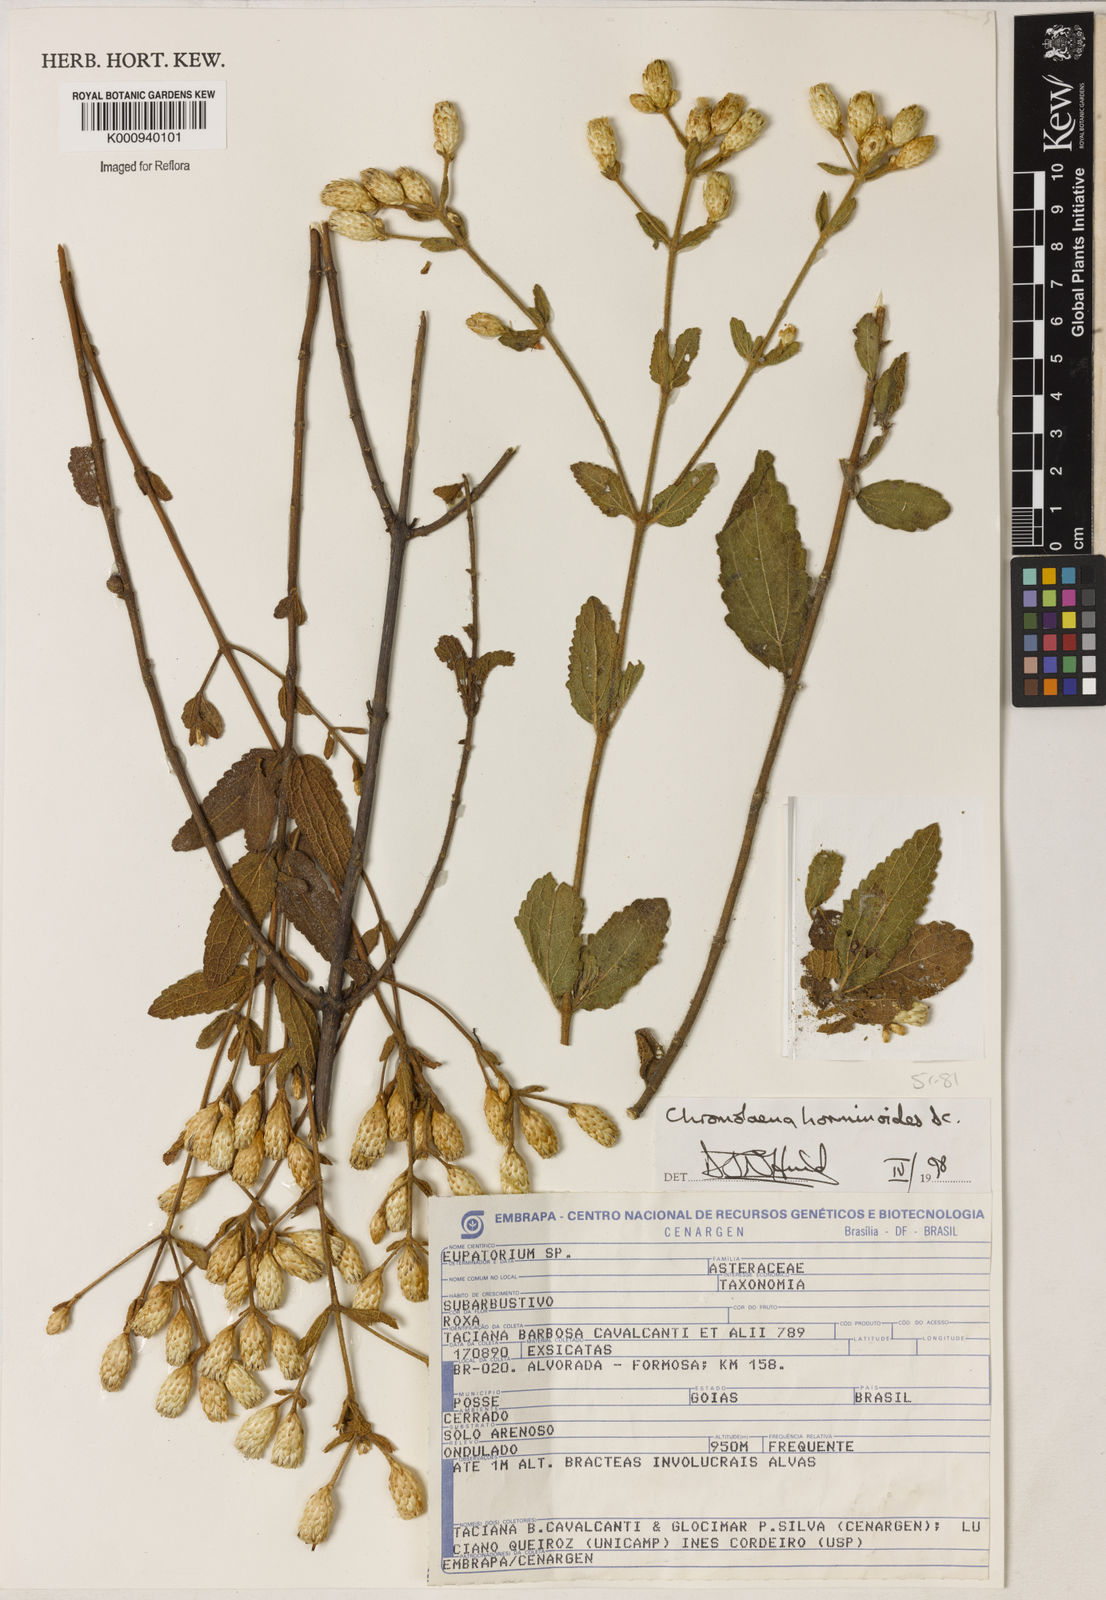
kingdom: Plantae
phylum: Tracheophyta
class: Magnoliopsida
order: Asterales
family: Asteraceae
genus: Chromolaena
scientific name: Chromolaena horminoides
